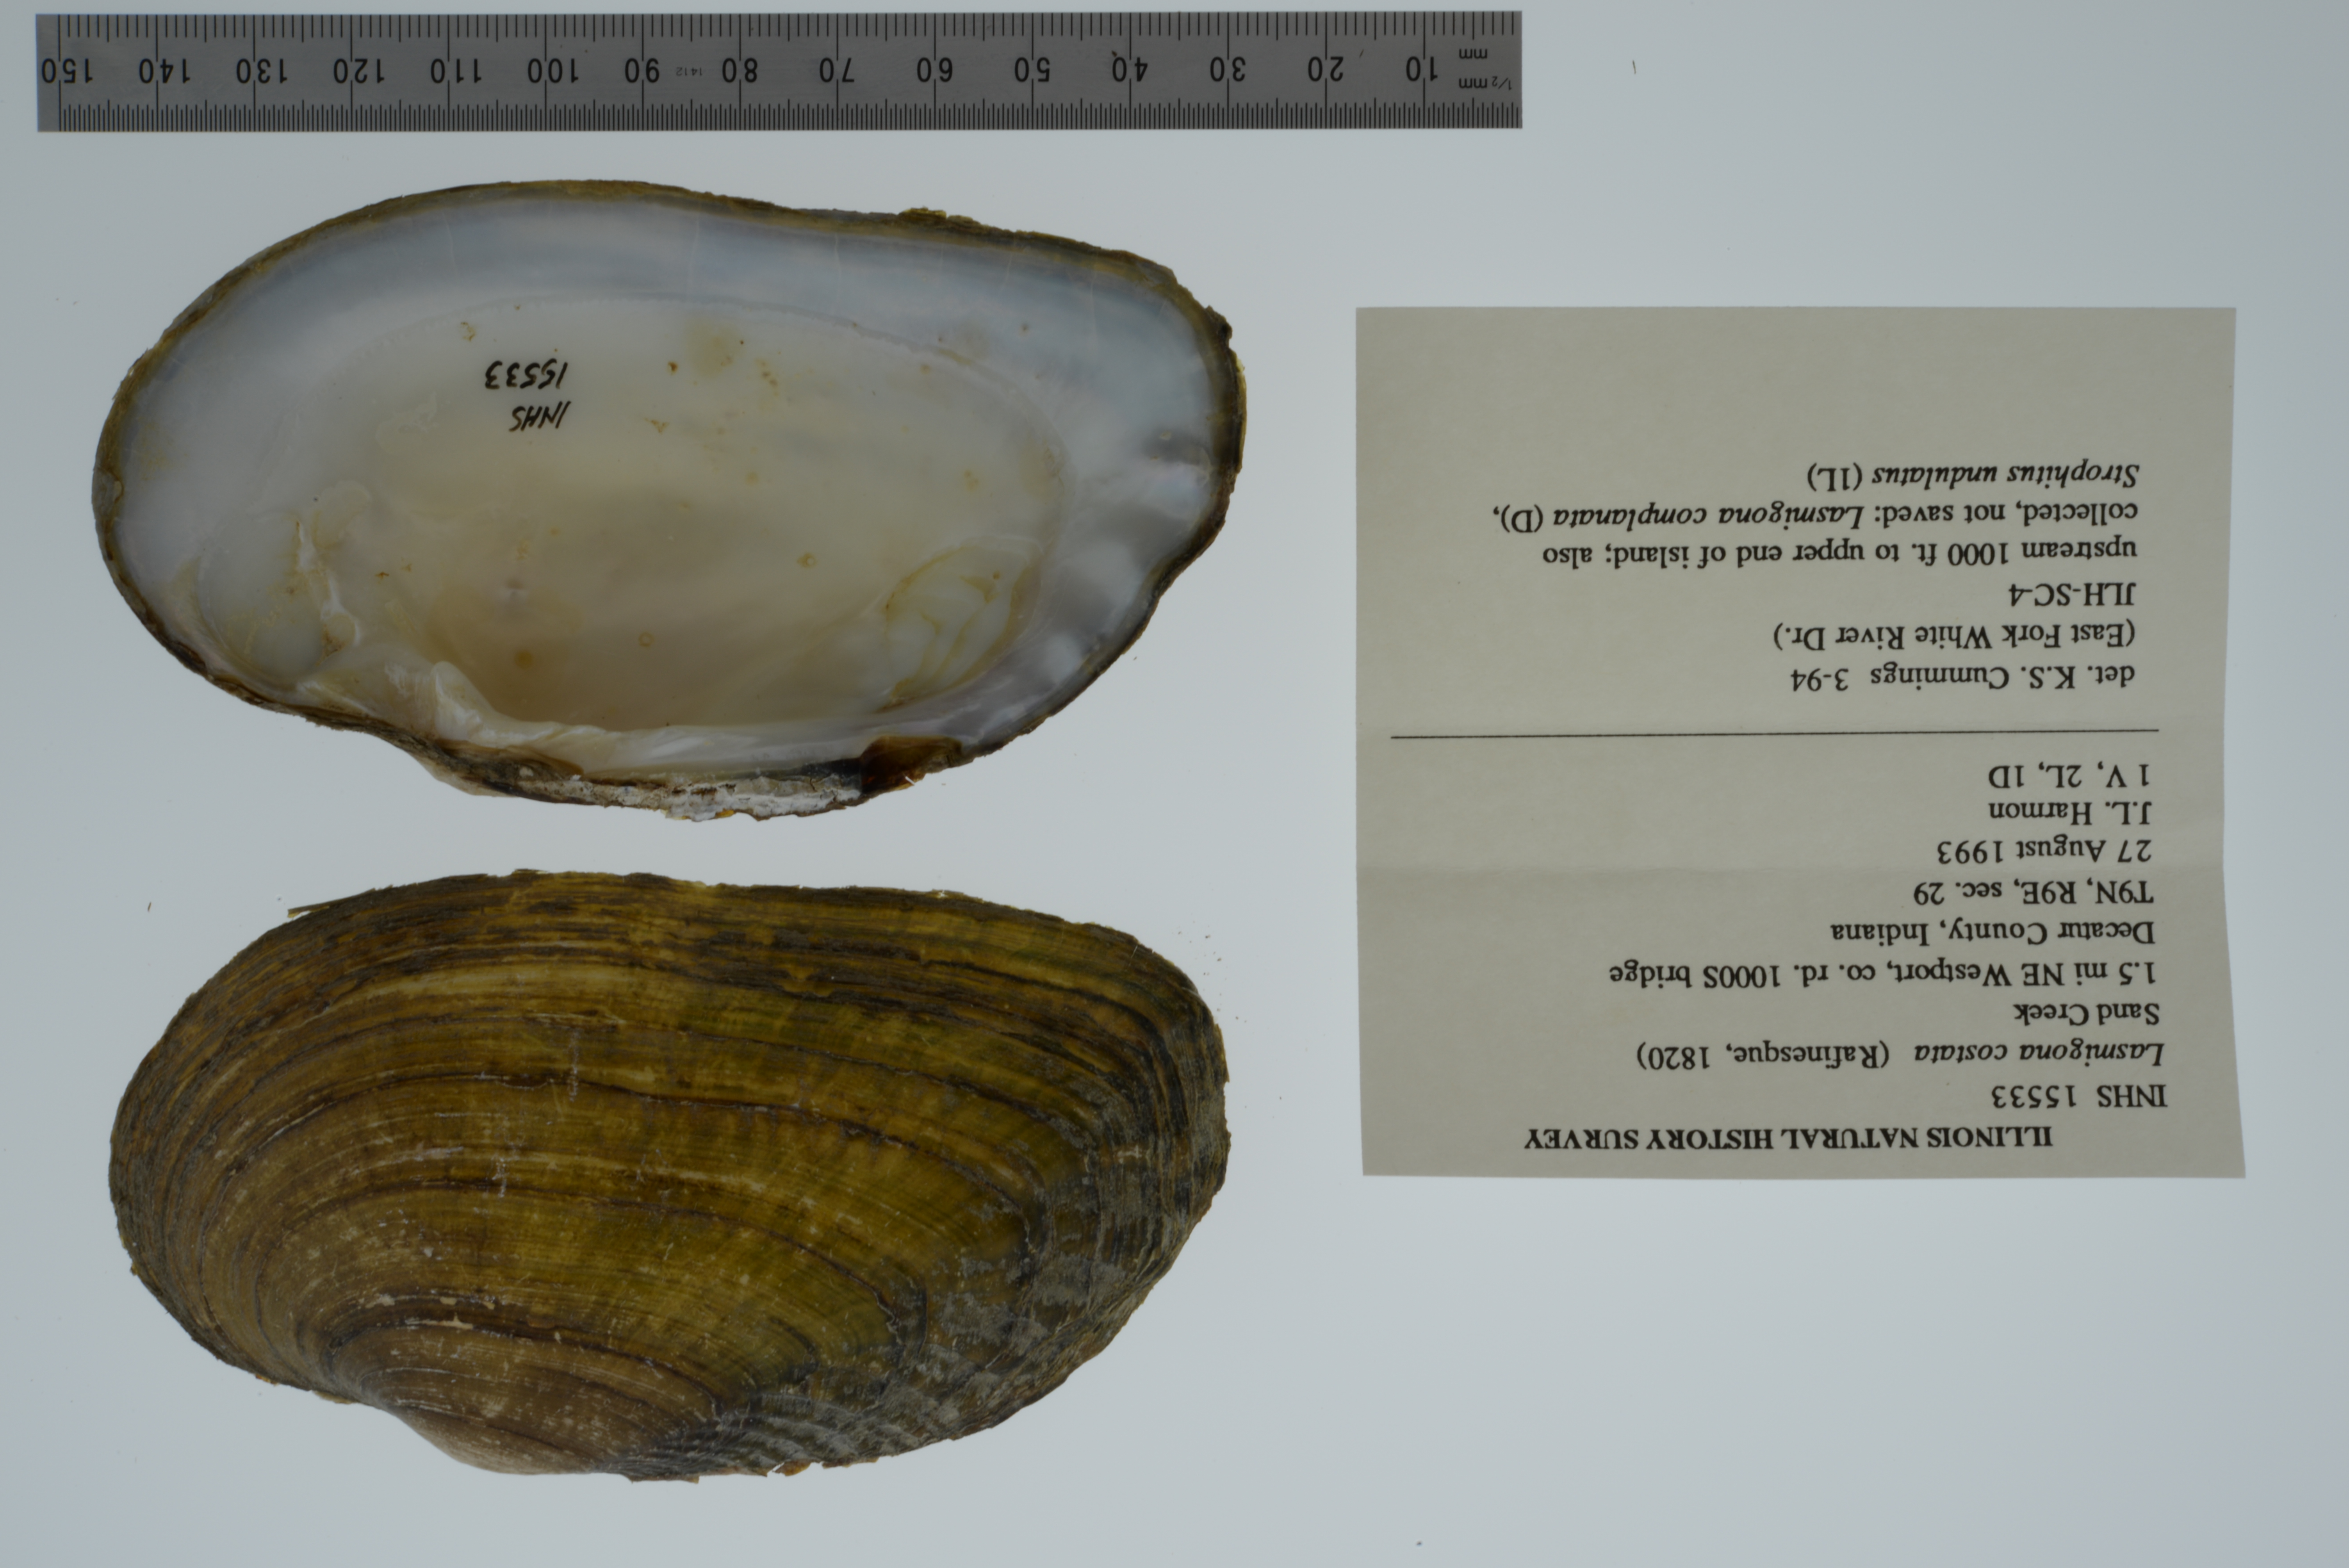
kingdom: Animalia
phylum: Mollusca
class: Bivalvia
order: Unionida
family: Unionidae
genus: Lasmigona
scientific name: Lasmigona costata
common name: Flutedshell
